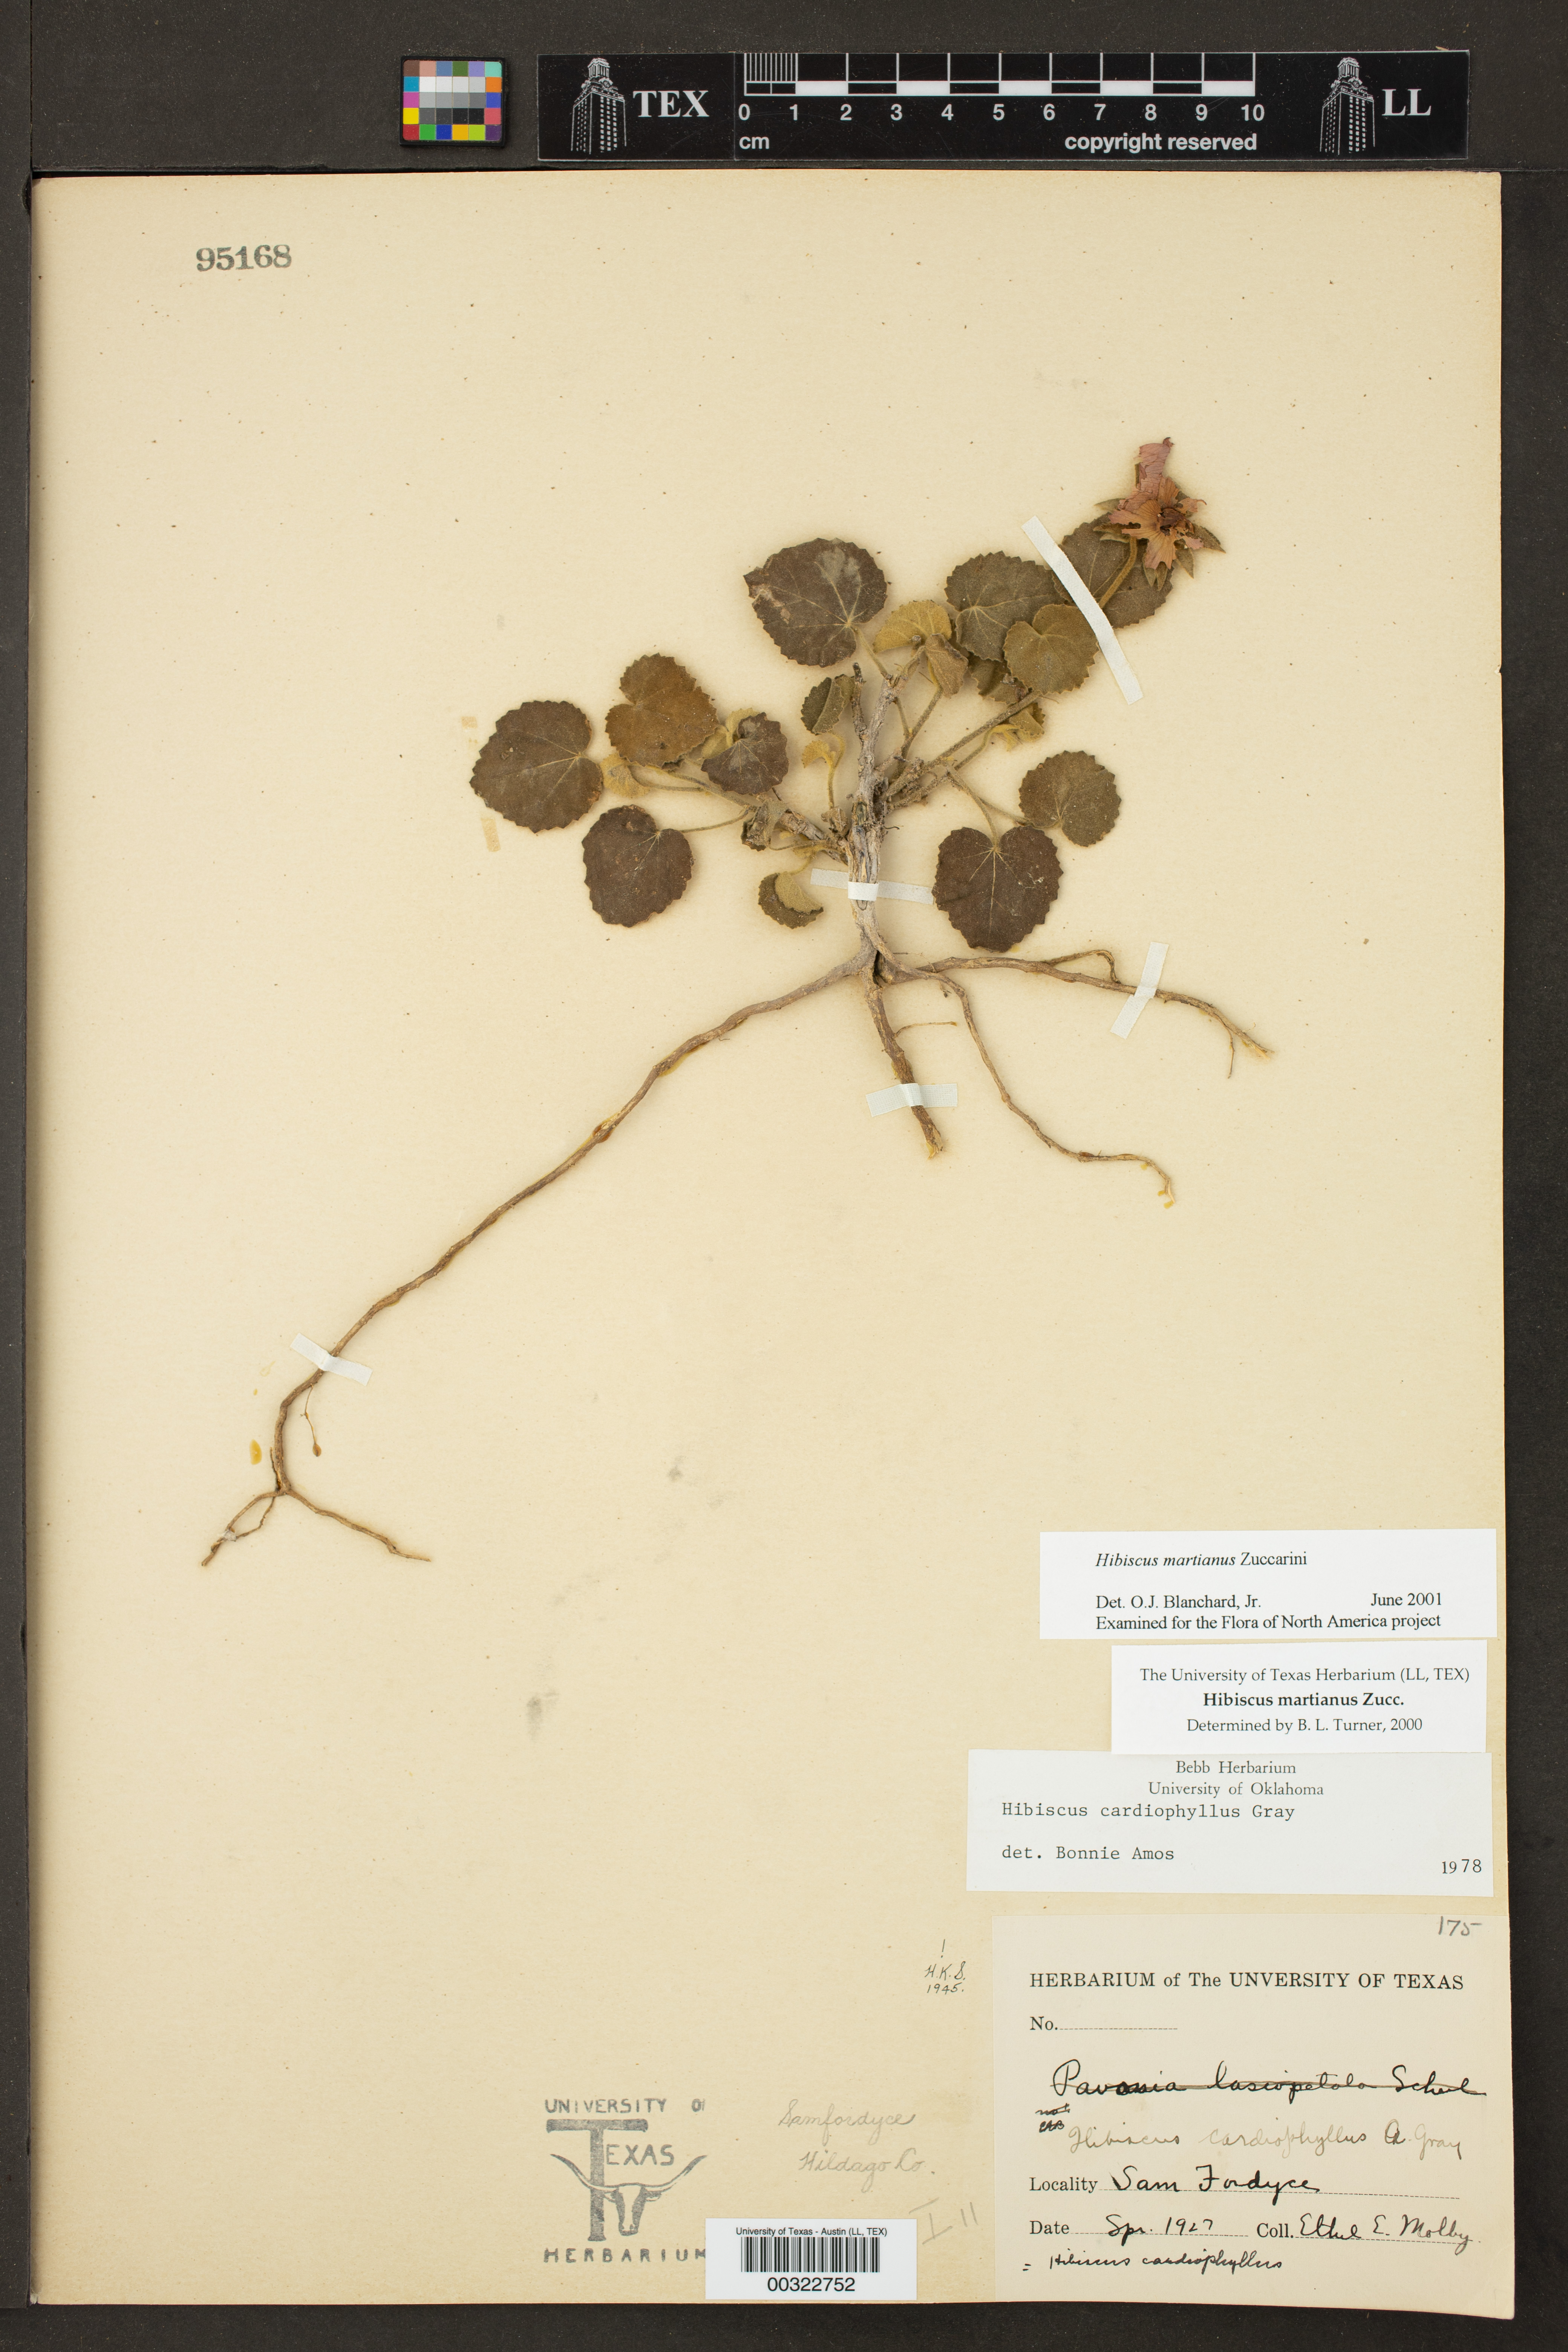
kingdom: Plantae
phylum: Tracheophyta
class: Magnoliopsida
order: Malvales
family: Malvaceae
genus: Hibiscus
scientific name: Hibiscus martianus
